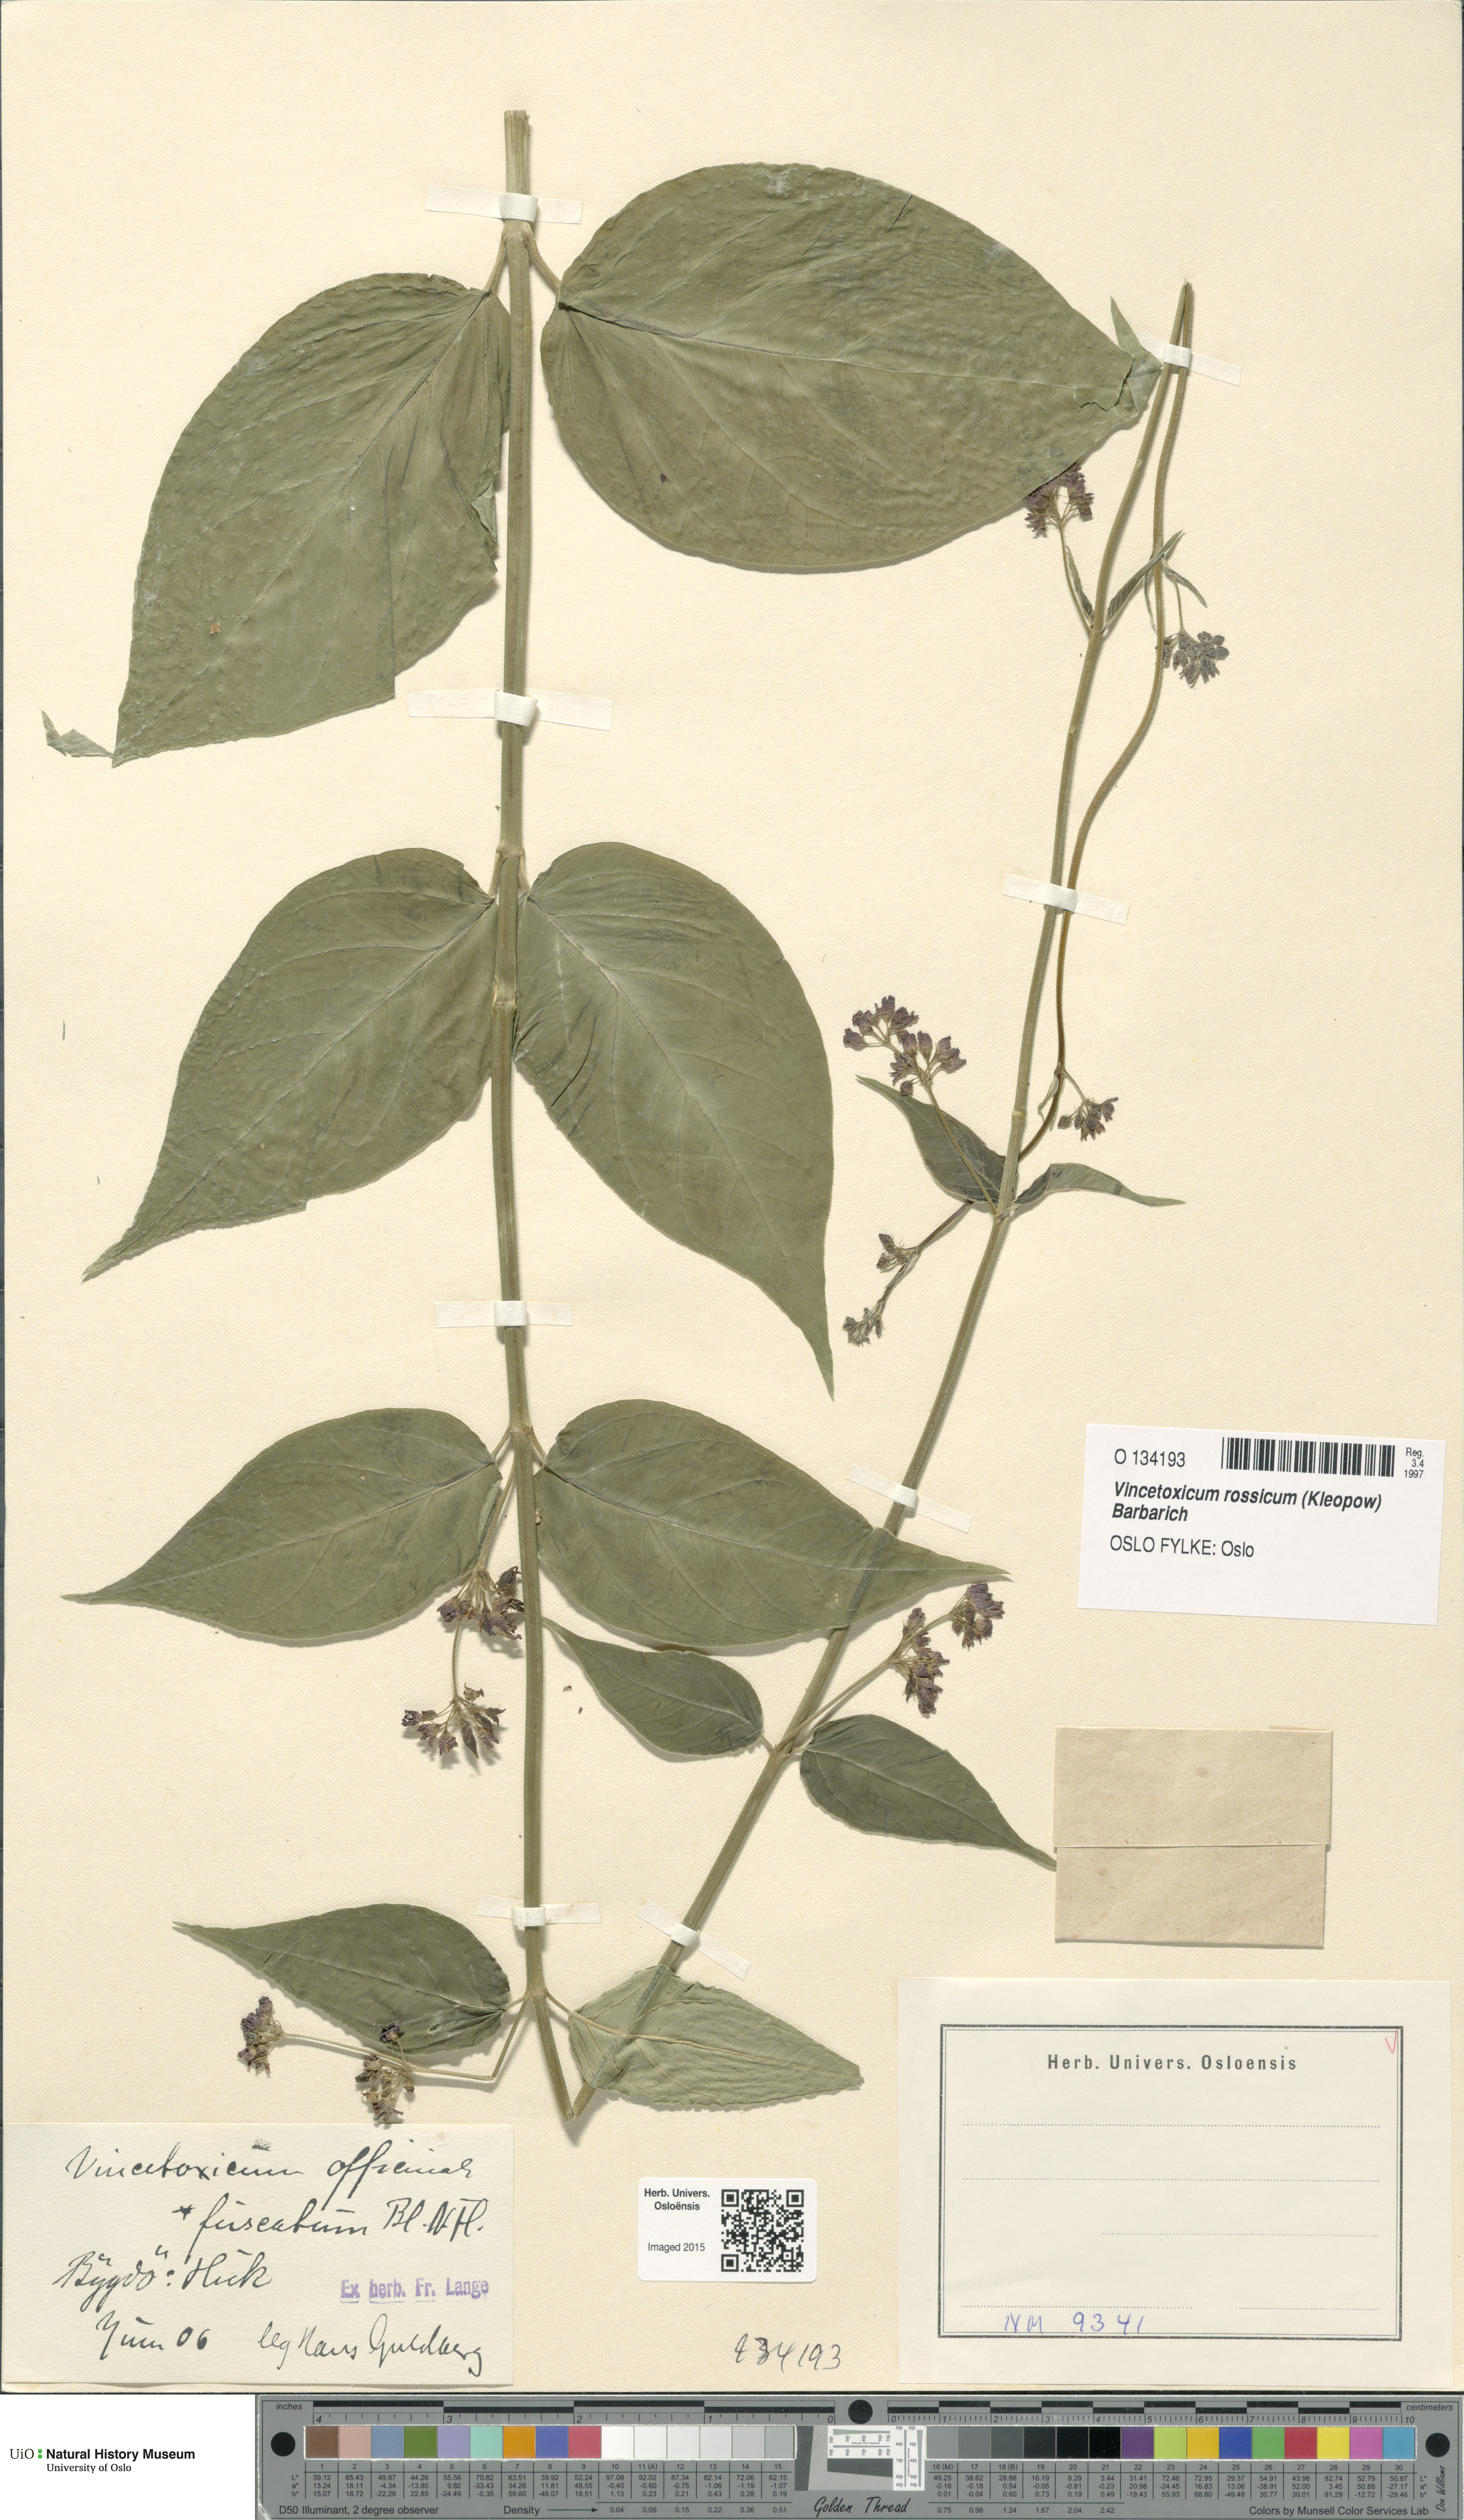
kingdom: Plantae
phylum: Tracheophyta
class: Magnoliopsida
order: Gentianales
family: Apocynaceae
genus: Vincetoxicum
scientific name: Vincetoxicum rossicum
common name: Dog-strangling vine
